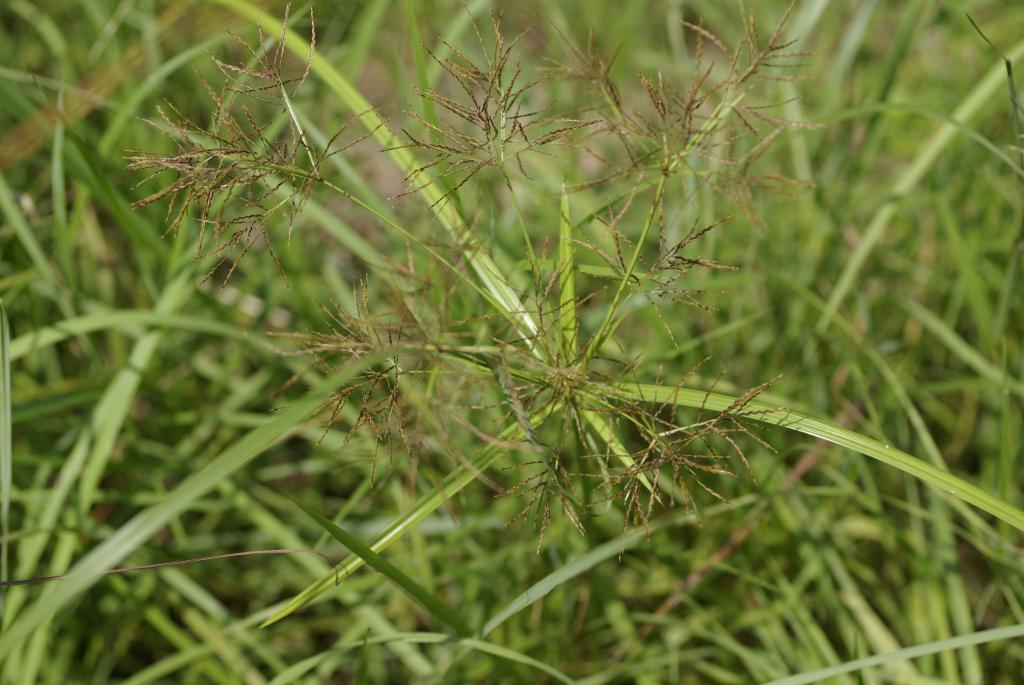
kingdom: Plantae
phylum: Tracheophyta
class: Liliopsida
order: Poales
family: Cyperaceae
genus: Cyperus
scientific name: Cyperus distans
